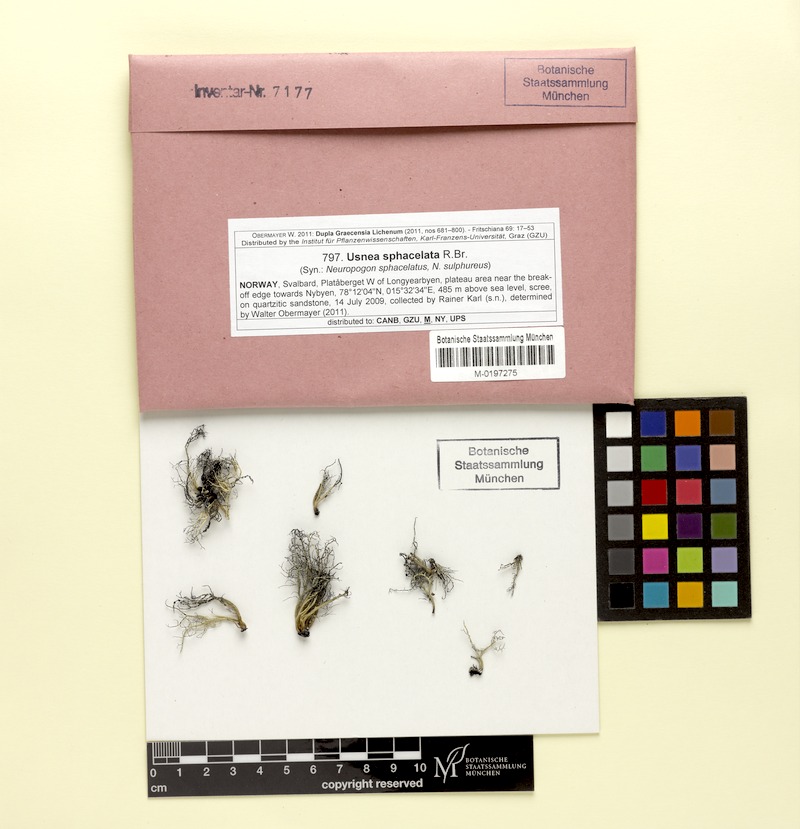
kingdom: Fungi
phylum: Ascomycota
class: Lecanoromycetes
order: Lecanorales
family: Parmeliaceae
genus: Usnea
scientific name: Usnea sphacelata
